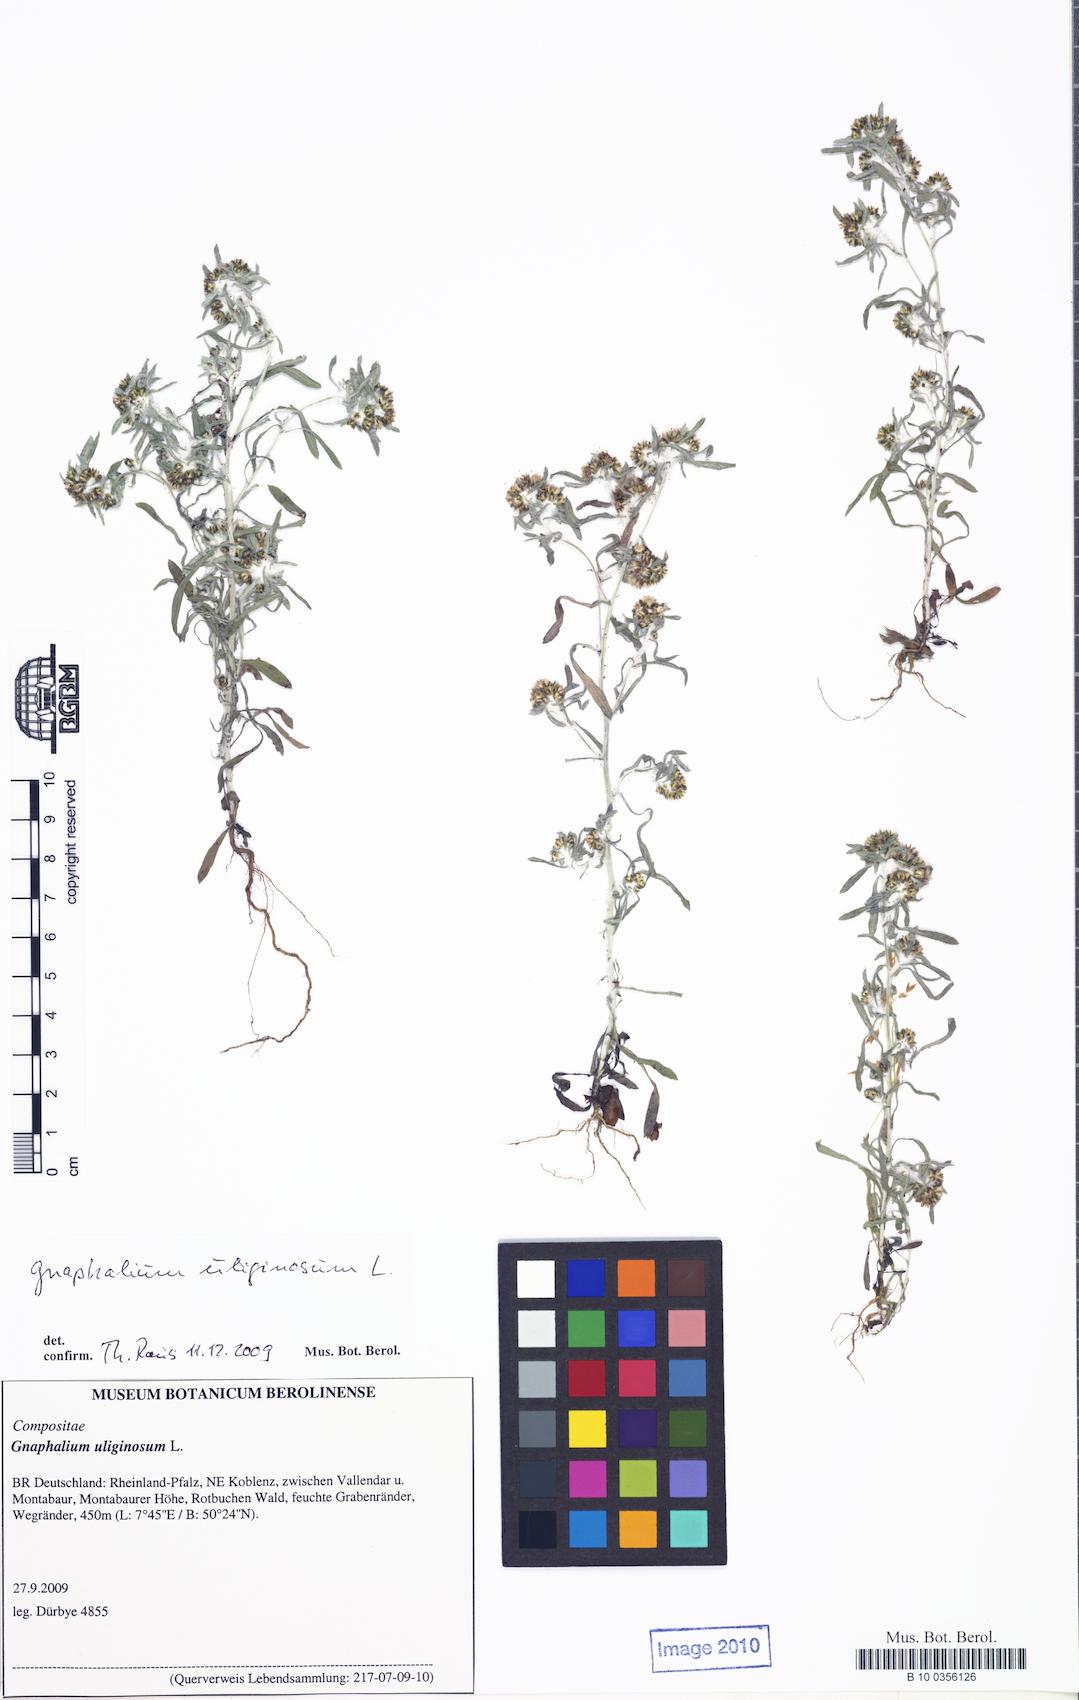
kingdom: Plantae
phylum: Tracheophyta
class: Magnoliopsida
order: Asterales
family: Asteraceae
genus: Gnaphalium
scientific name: Gnaphalium uliginosum
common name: Marsh cudweed
